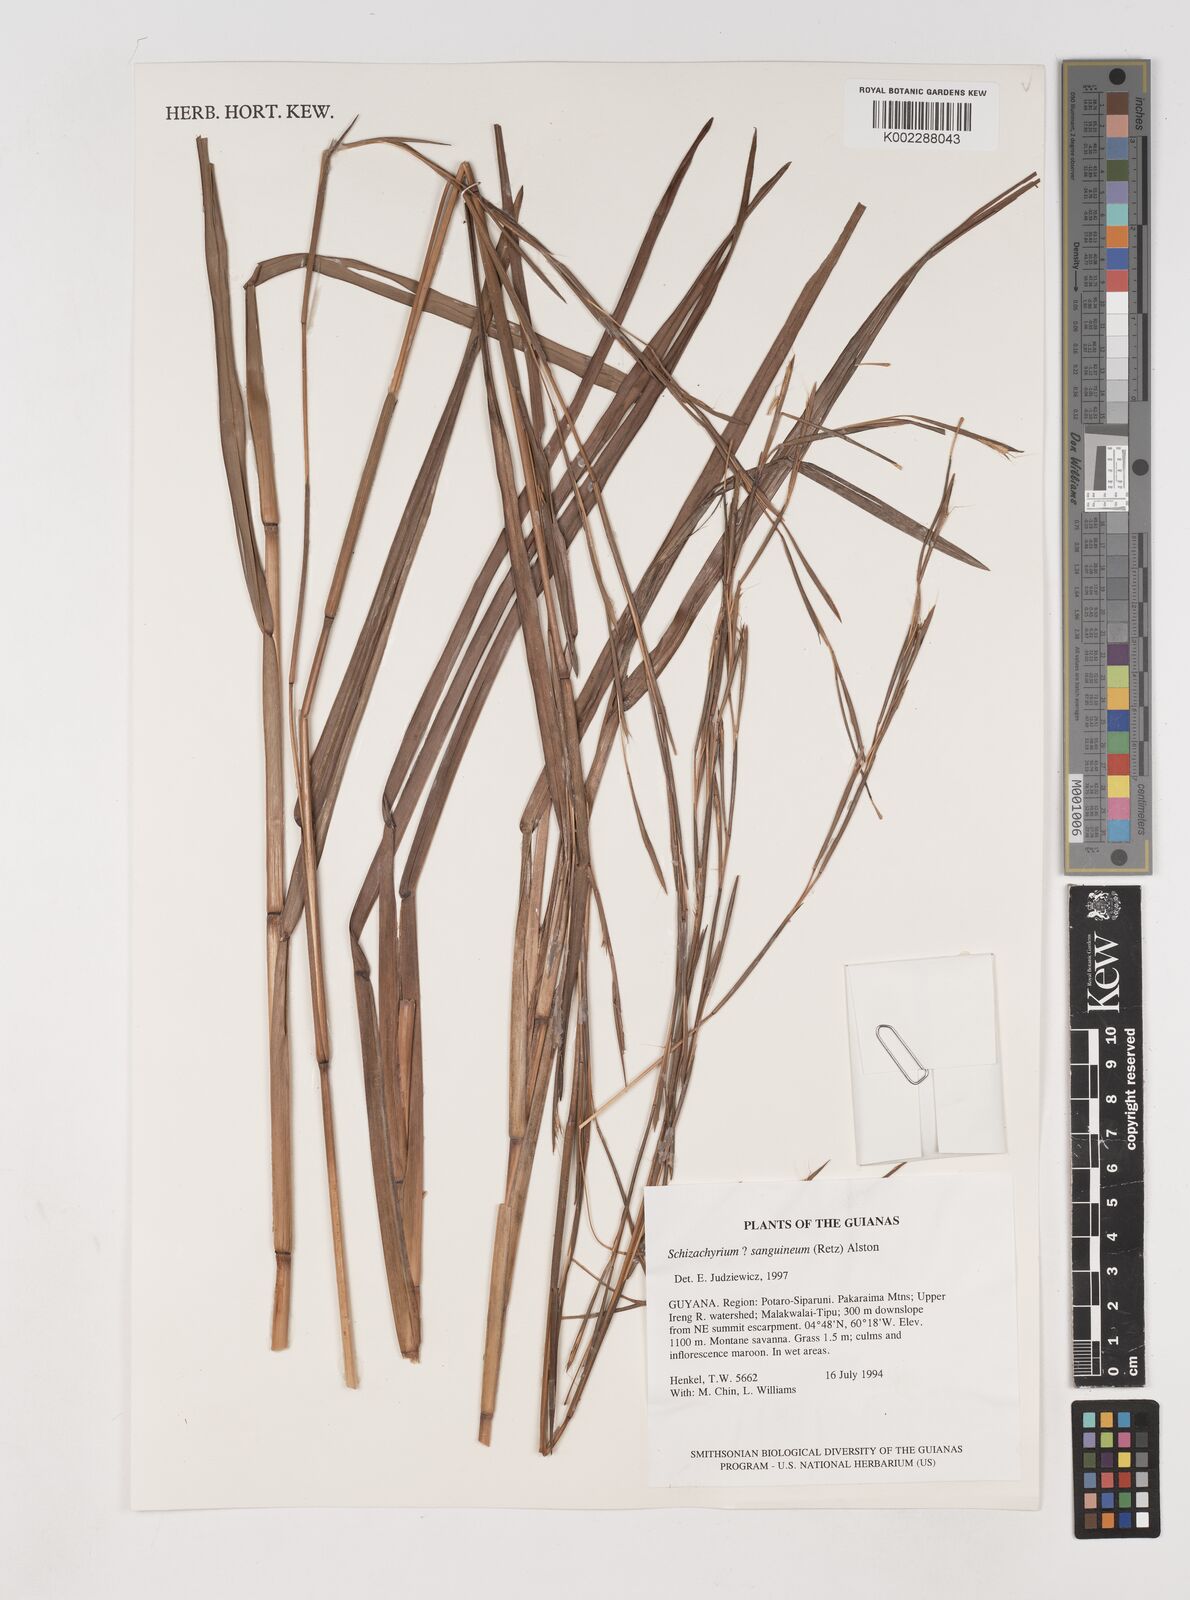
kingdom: Plantae
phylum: Tracheophyta
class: Liliopsida
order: Poales
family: Poaceae
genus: Schizachyrium
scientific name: Schizachyrium sanguineum
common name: Crimson bluestem
